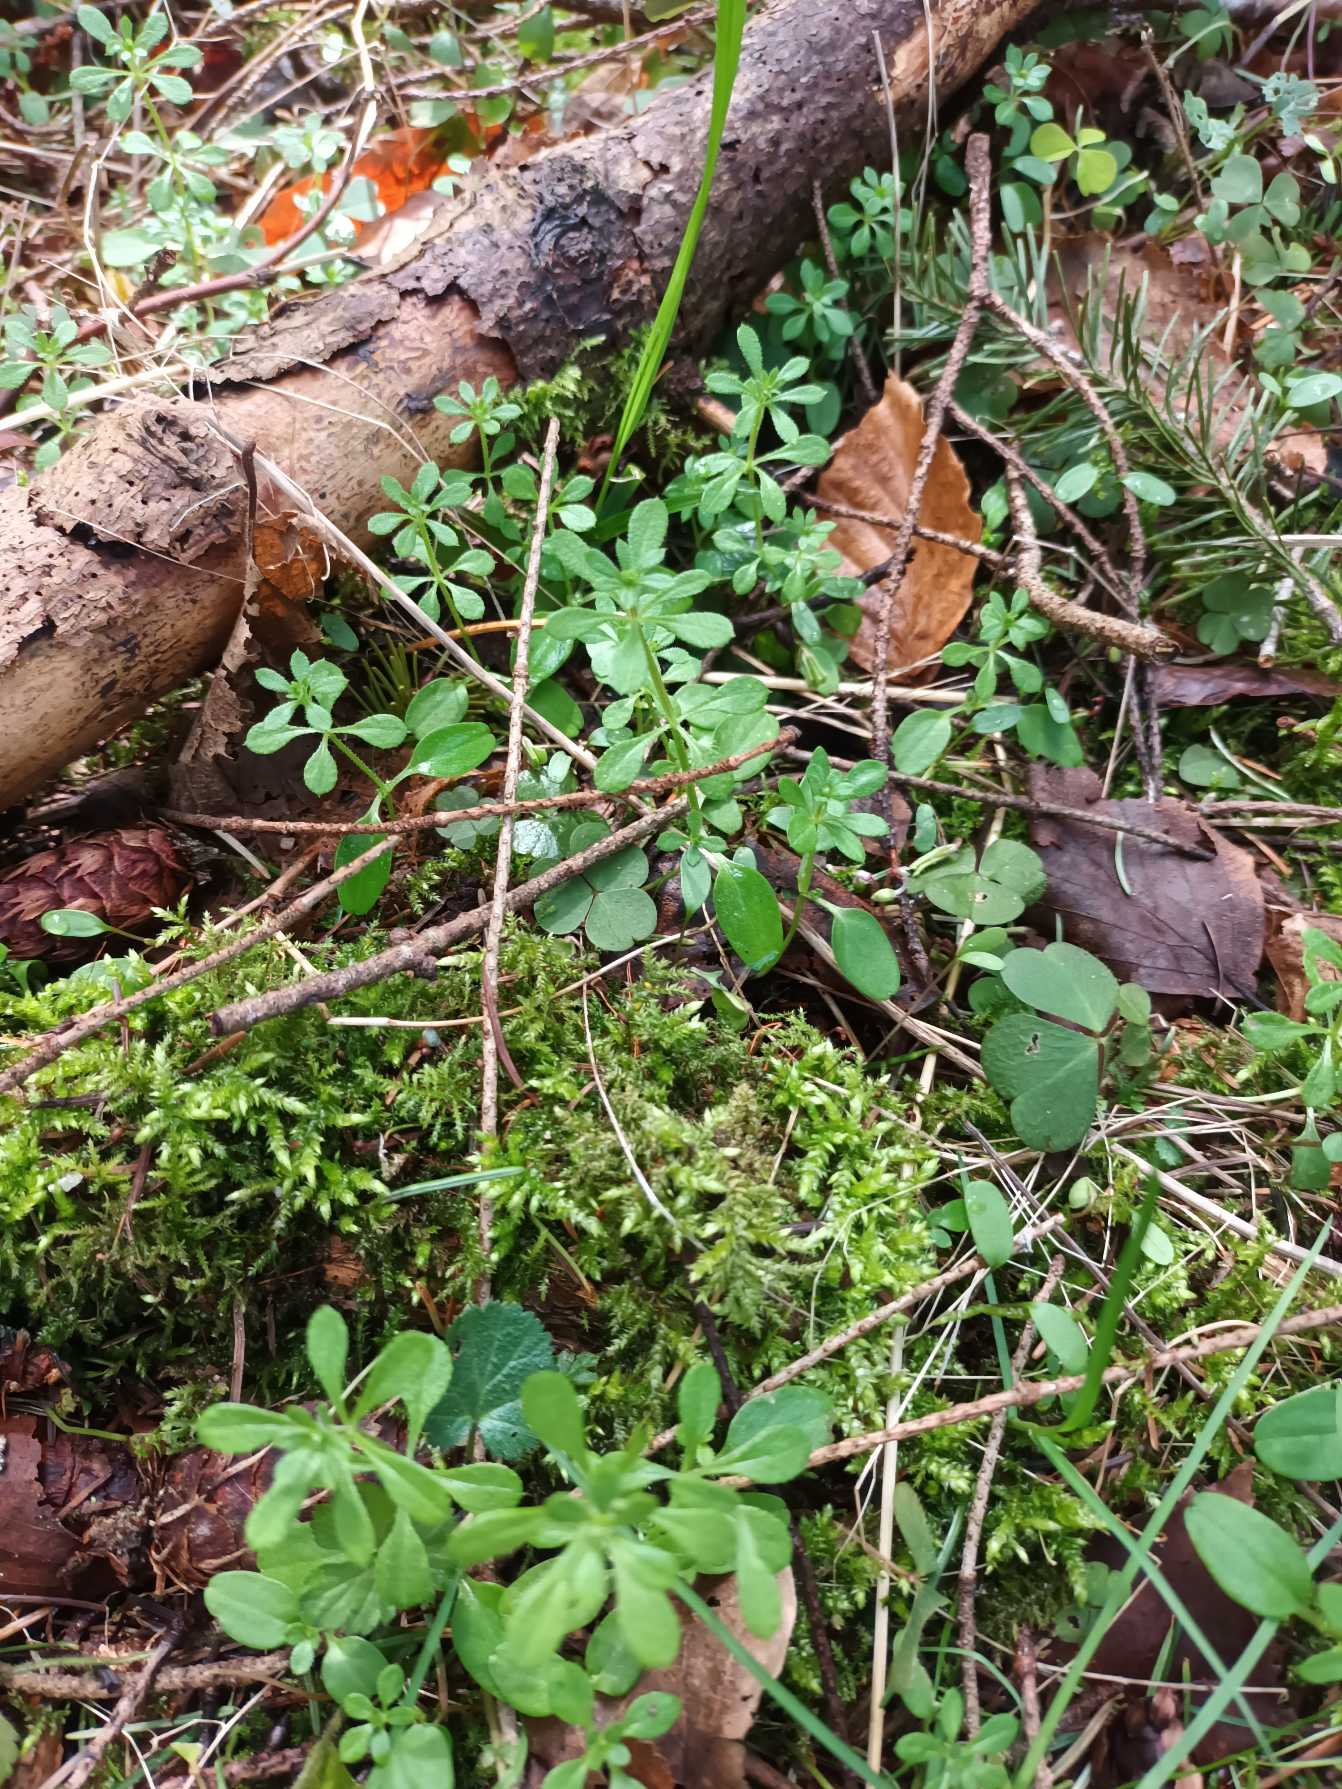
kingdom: Plantae
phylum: Tracheophyta
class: Magnoliopsida
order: Gentianales
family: Rubiaceae
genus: Galium
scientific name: Galium aparine
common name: Burre-snerre
